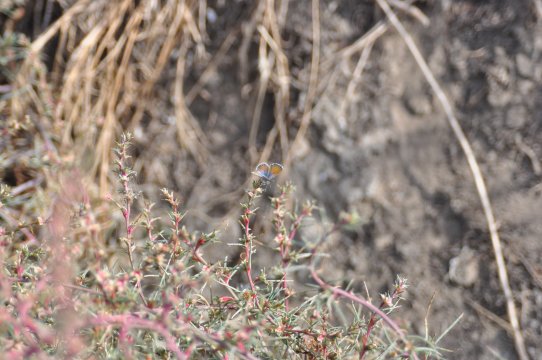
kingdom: Animalia
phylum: Arthropoda
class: Insecta
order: Lepidoptera
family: Lycaenidae
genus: Brephidium
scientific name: Brephidium exilis
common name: Western Pygmy-Blue
